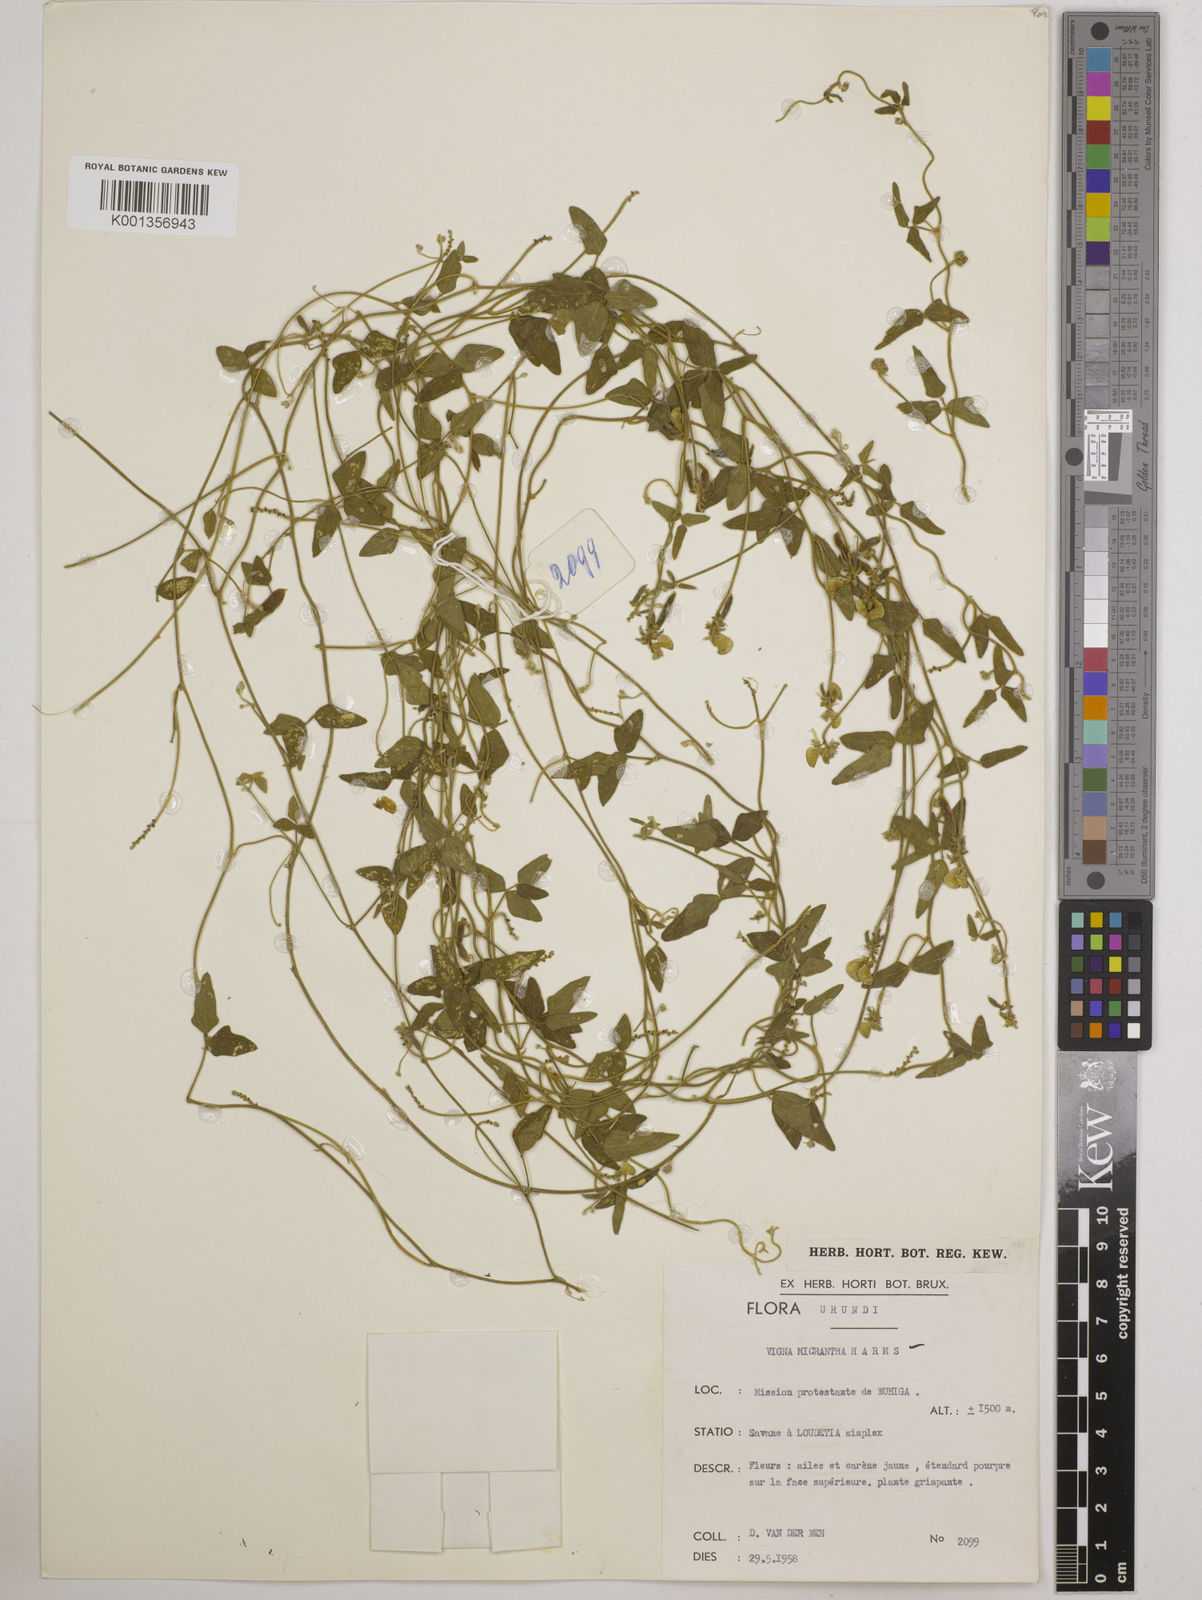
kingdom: Plantae
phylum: Tracheophyta
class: Magnoliopsida
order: Fabales
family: Fabaceae
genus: Vigna
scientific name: Vigna comosa
